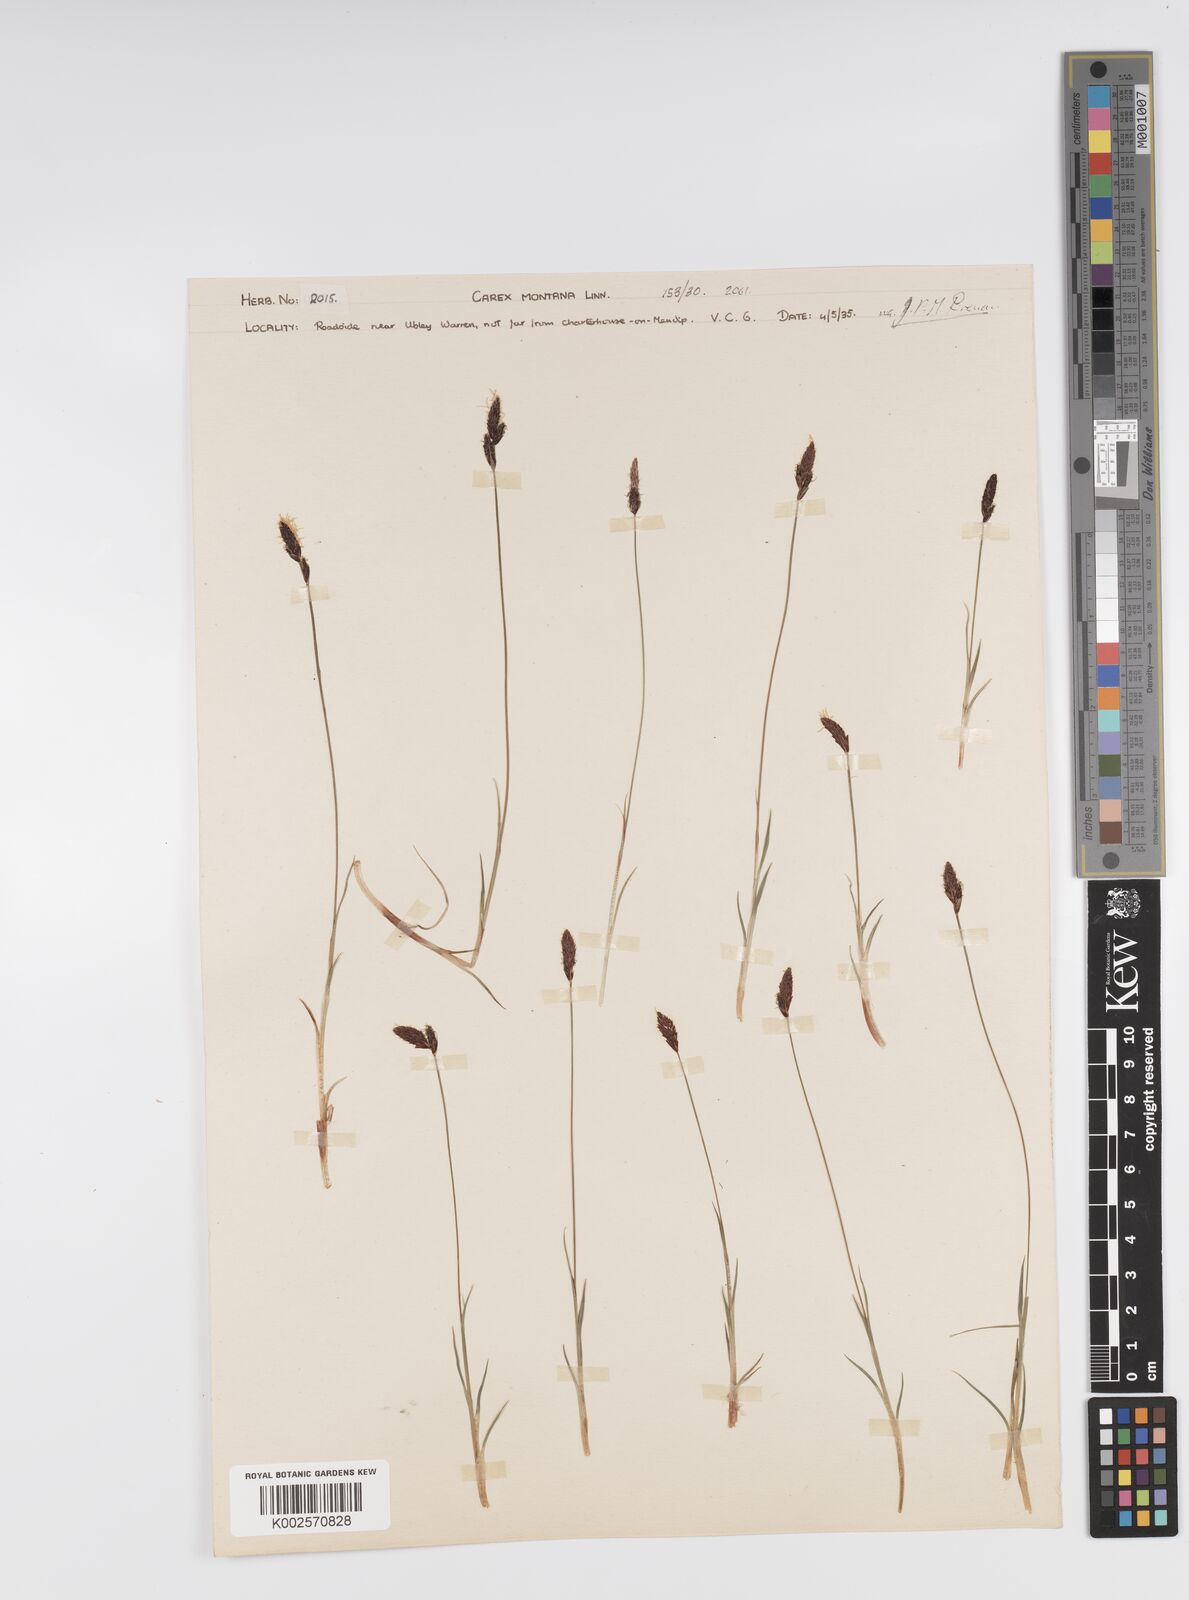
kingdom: Plantae
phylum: Tracheophyta
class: Liliopsida
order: Poales
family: Cyperaceae
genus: Carex
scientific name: Carex montana
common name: Soft-leaved sedge
